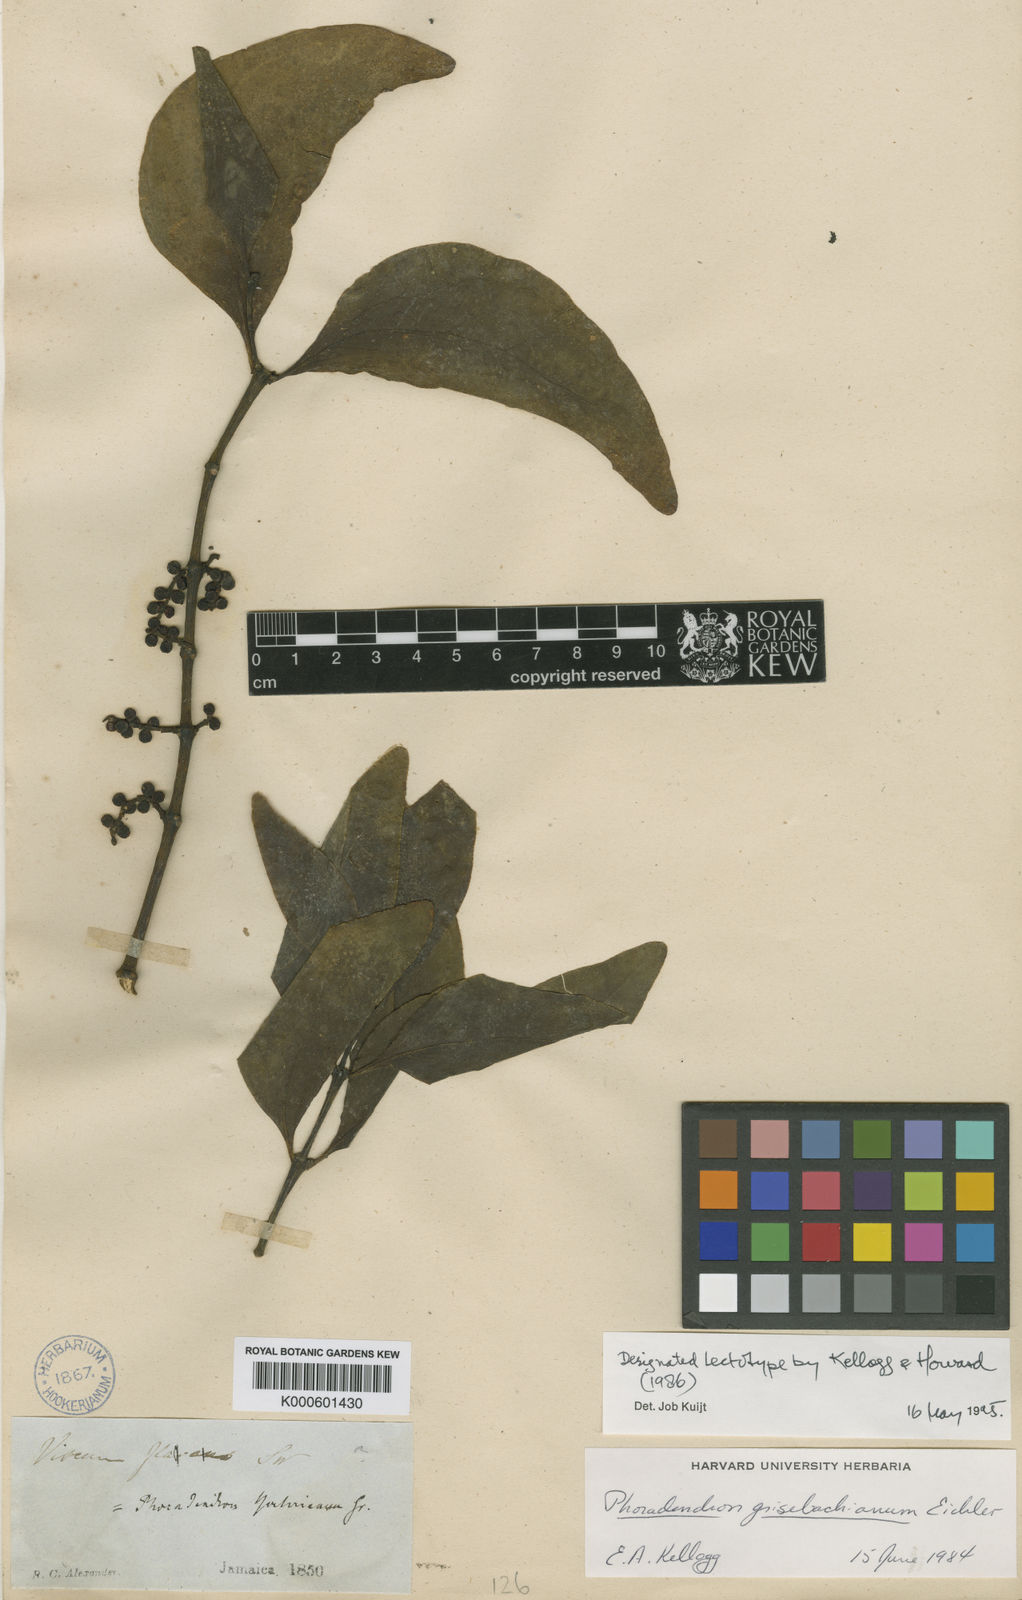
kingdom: Plantae
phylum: Tracheophyta
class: Magnoliopsida
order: Santalales
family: Viscaceae
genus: Phoradendron
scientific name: Phoradendron grisebachianum
